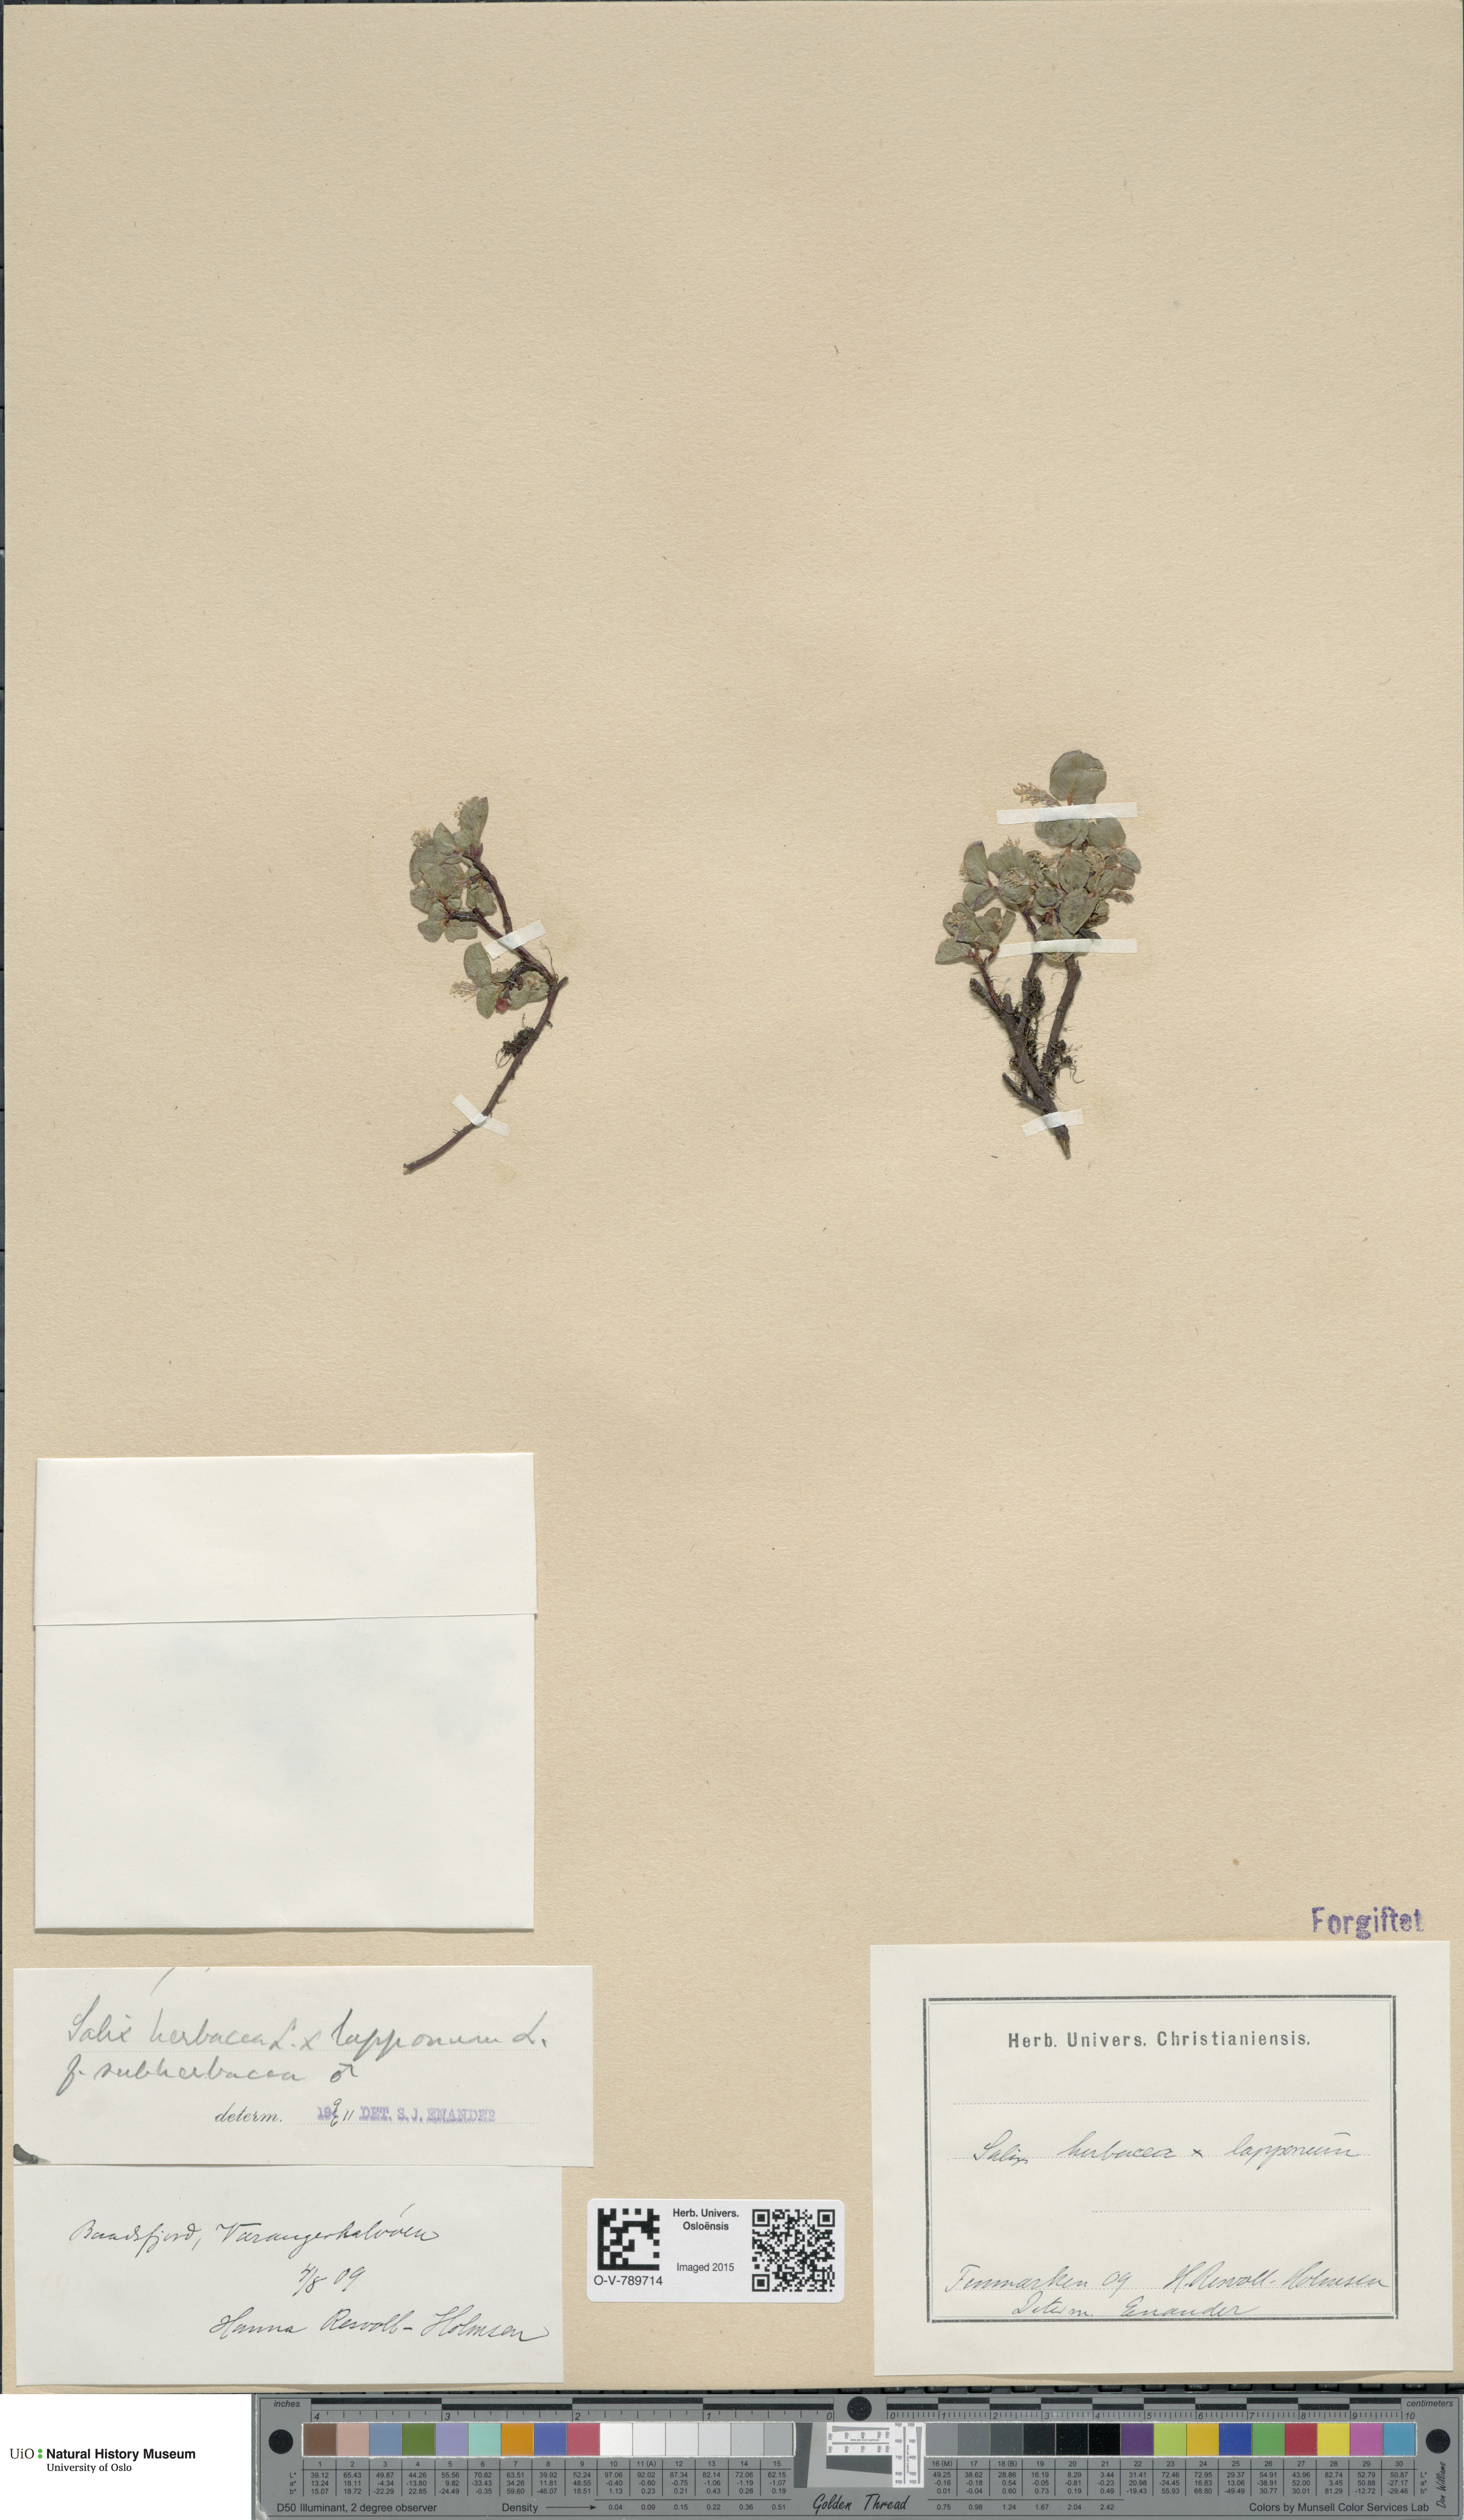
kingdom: Plantae
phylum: Tracheophyta
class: Magnoliopsida
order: Malpighiales
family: Salicaceae
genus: Salix
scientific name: Salix
